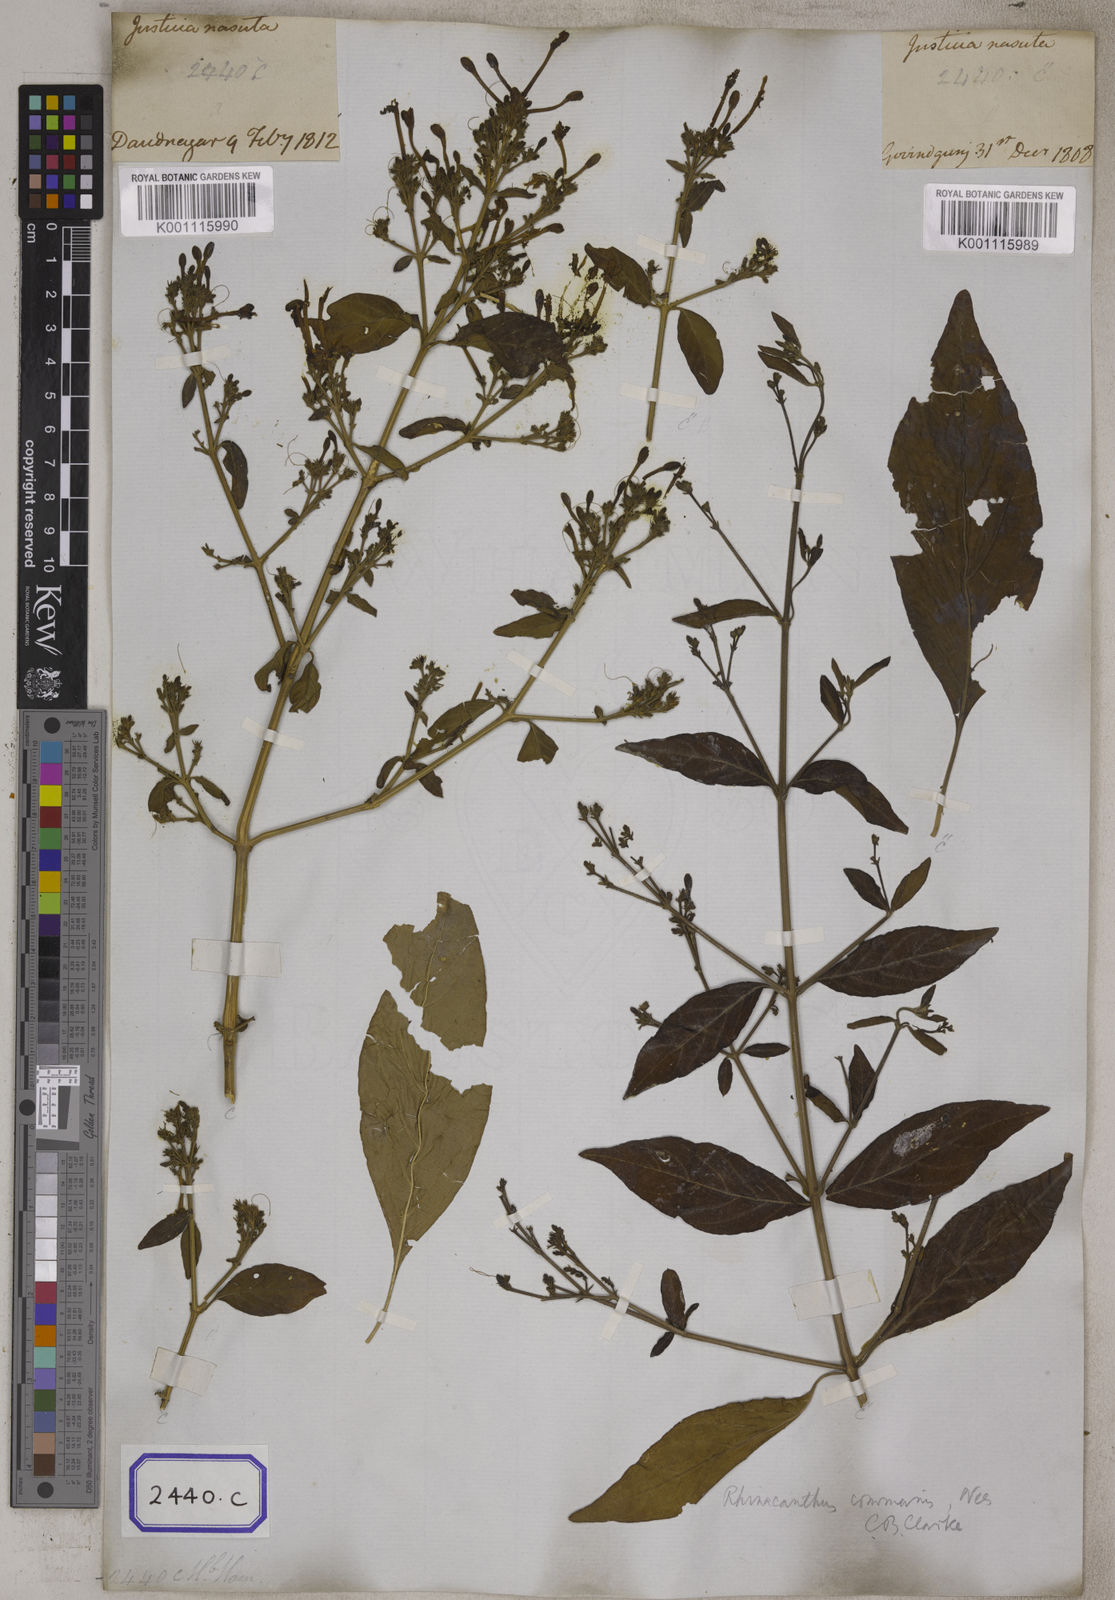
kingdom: Plantae
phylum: Tracheophyta
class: Magnoliopsida
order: Lamiales
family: Acanthaceae
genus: Rhinacanthus
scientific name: Rhinacanthus nasutus
